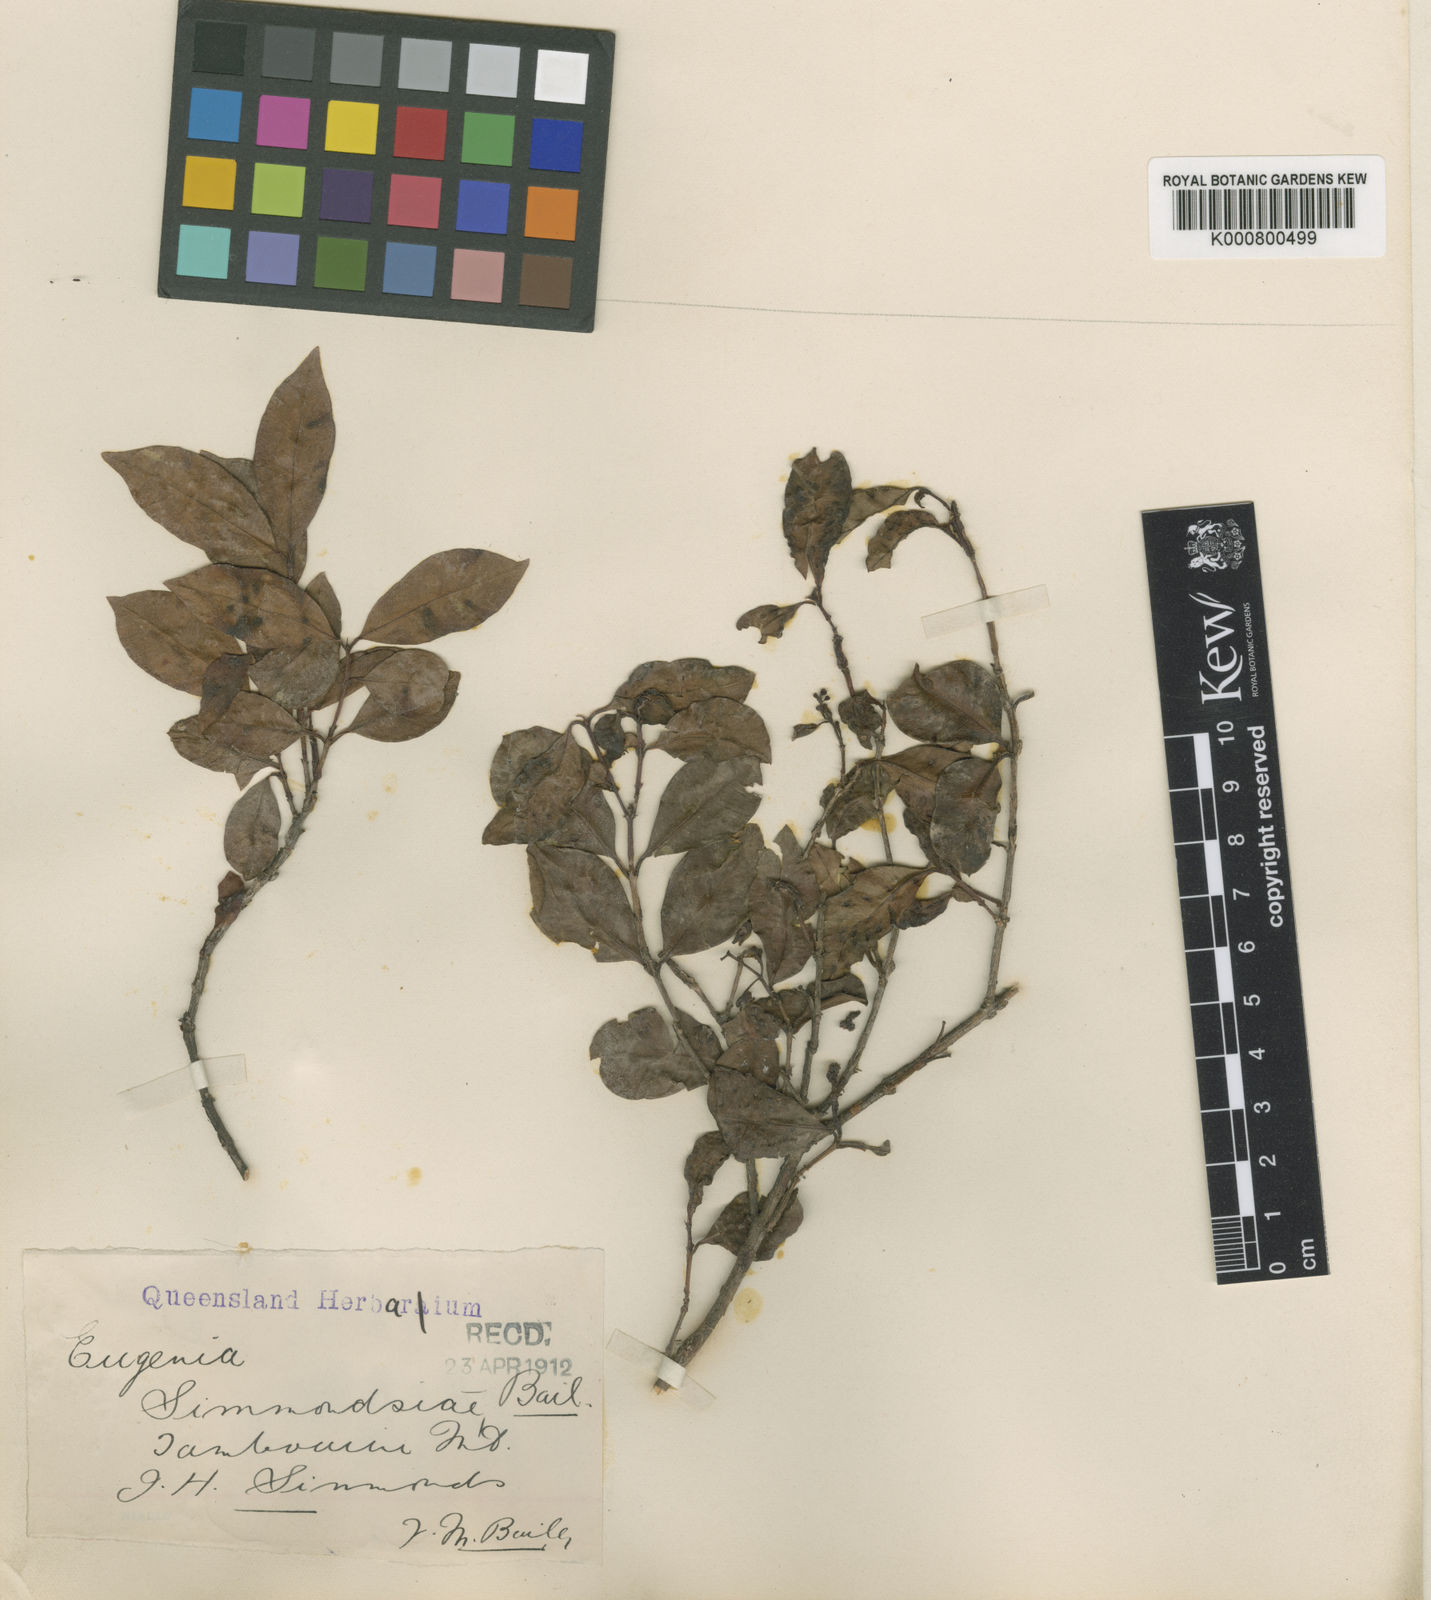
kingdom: Plantae
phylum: Tracheophyta
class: Magnoliopsida
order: Myrtales
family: Myrtaceae
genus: Syzygium
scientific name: Syzygium paniculatum
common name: Magenta lilly-pilly
